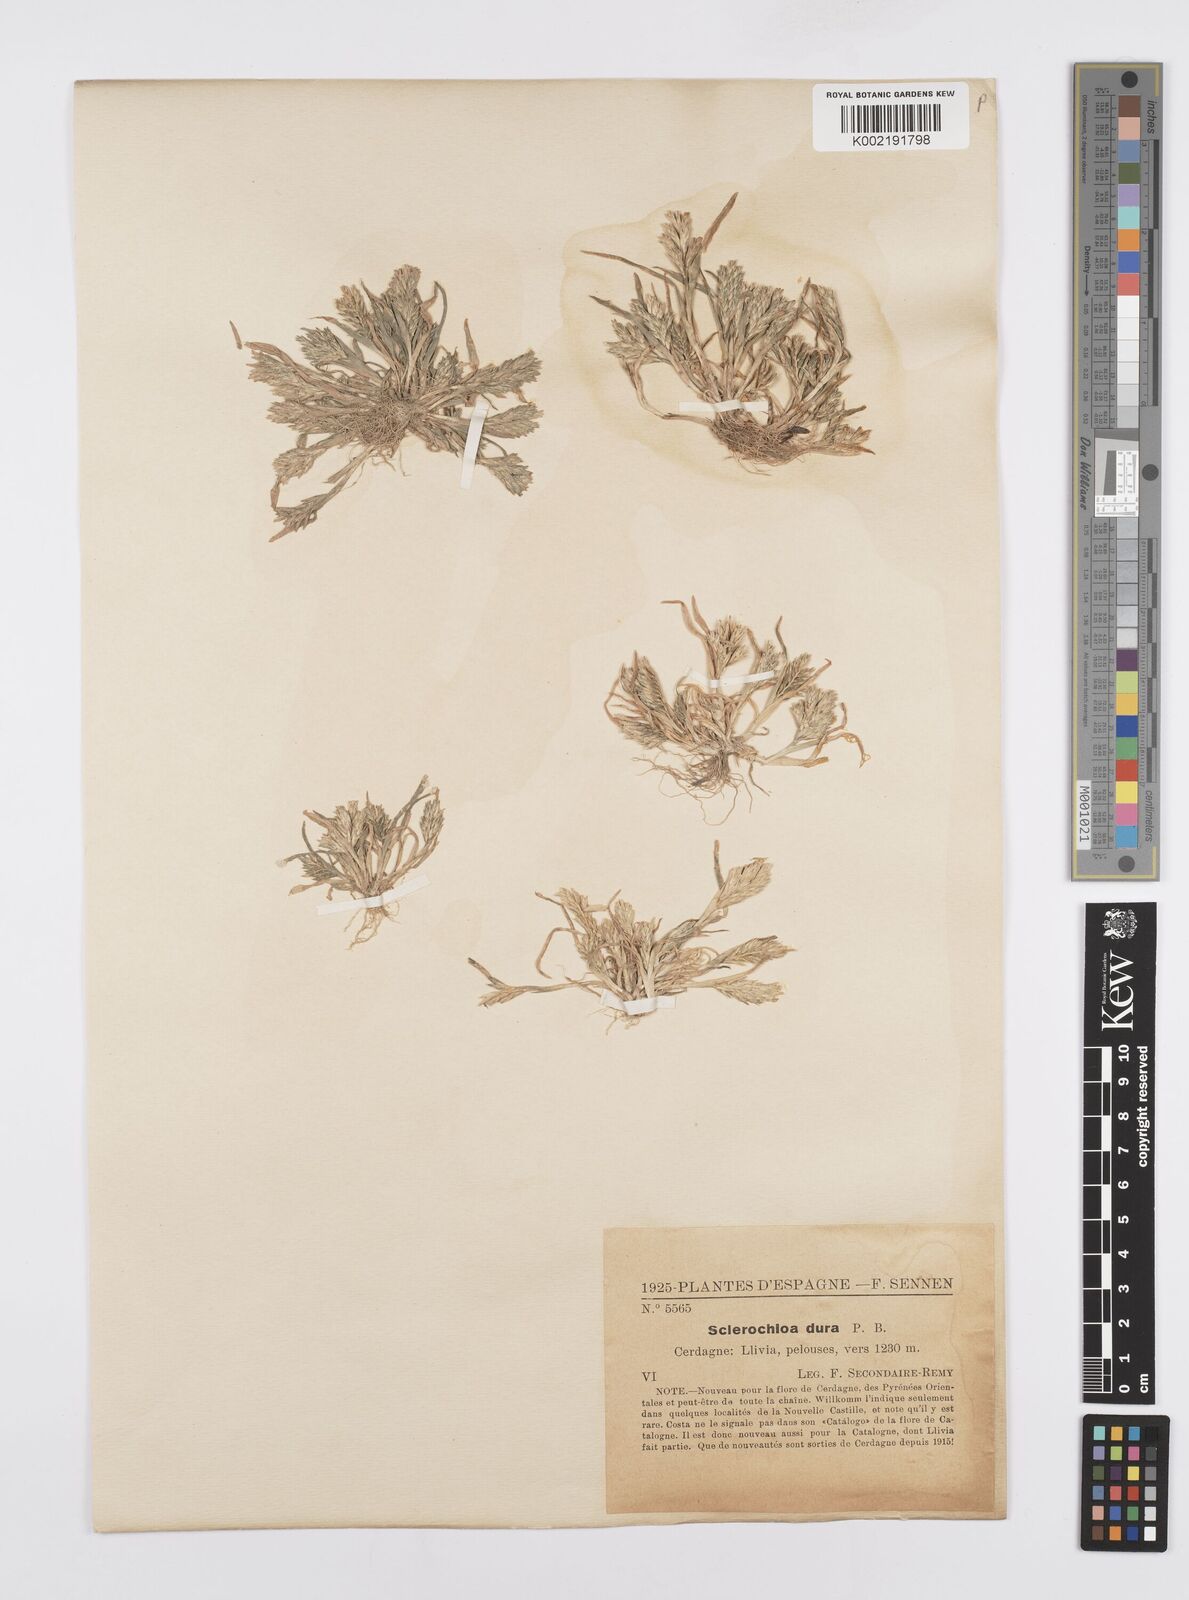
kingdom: Plantae
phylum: Tracheophyta
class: Liliopsida
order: Poales
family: Poaceae
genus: Sclerochloa
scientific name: Sclerochloa dura
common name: Common hardgrass
